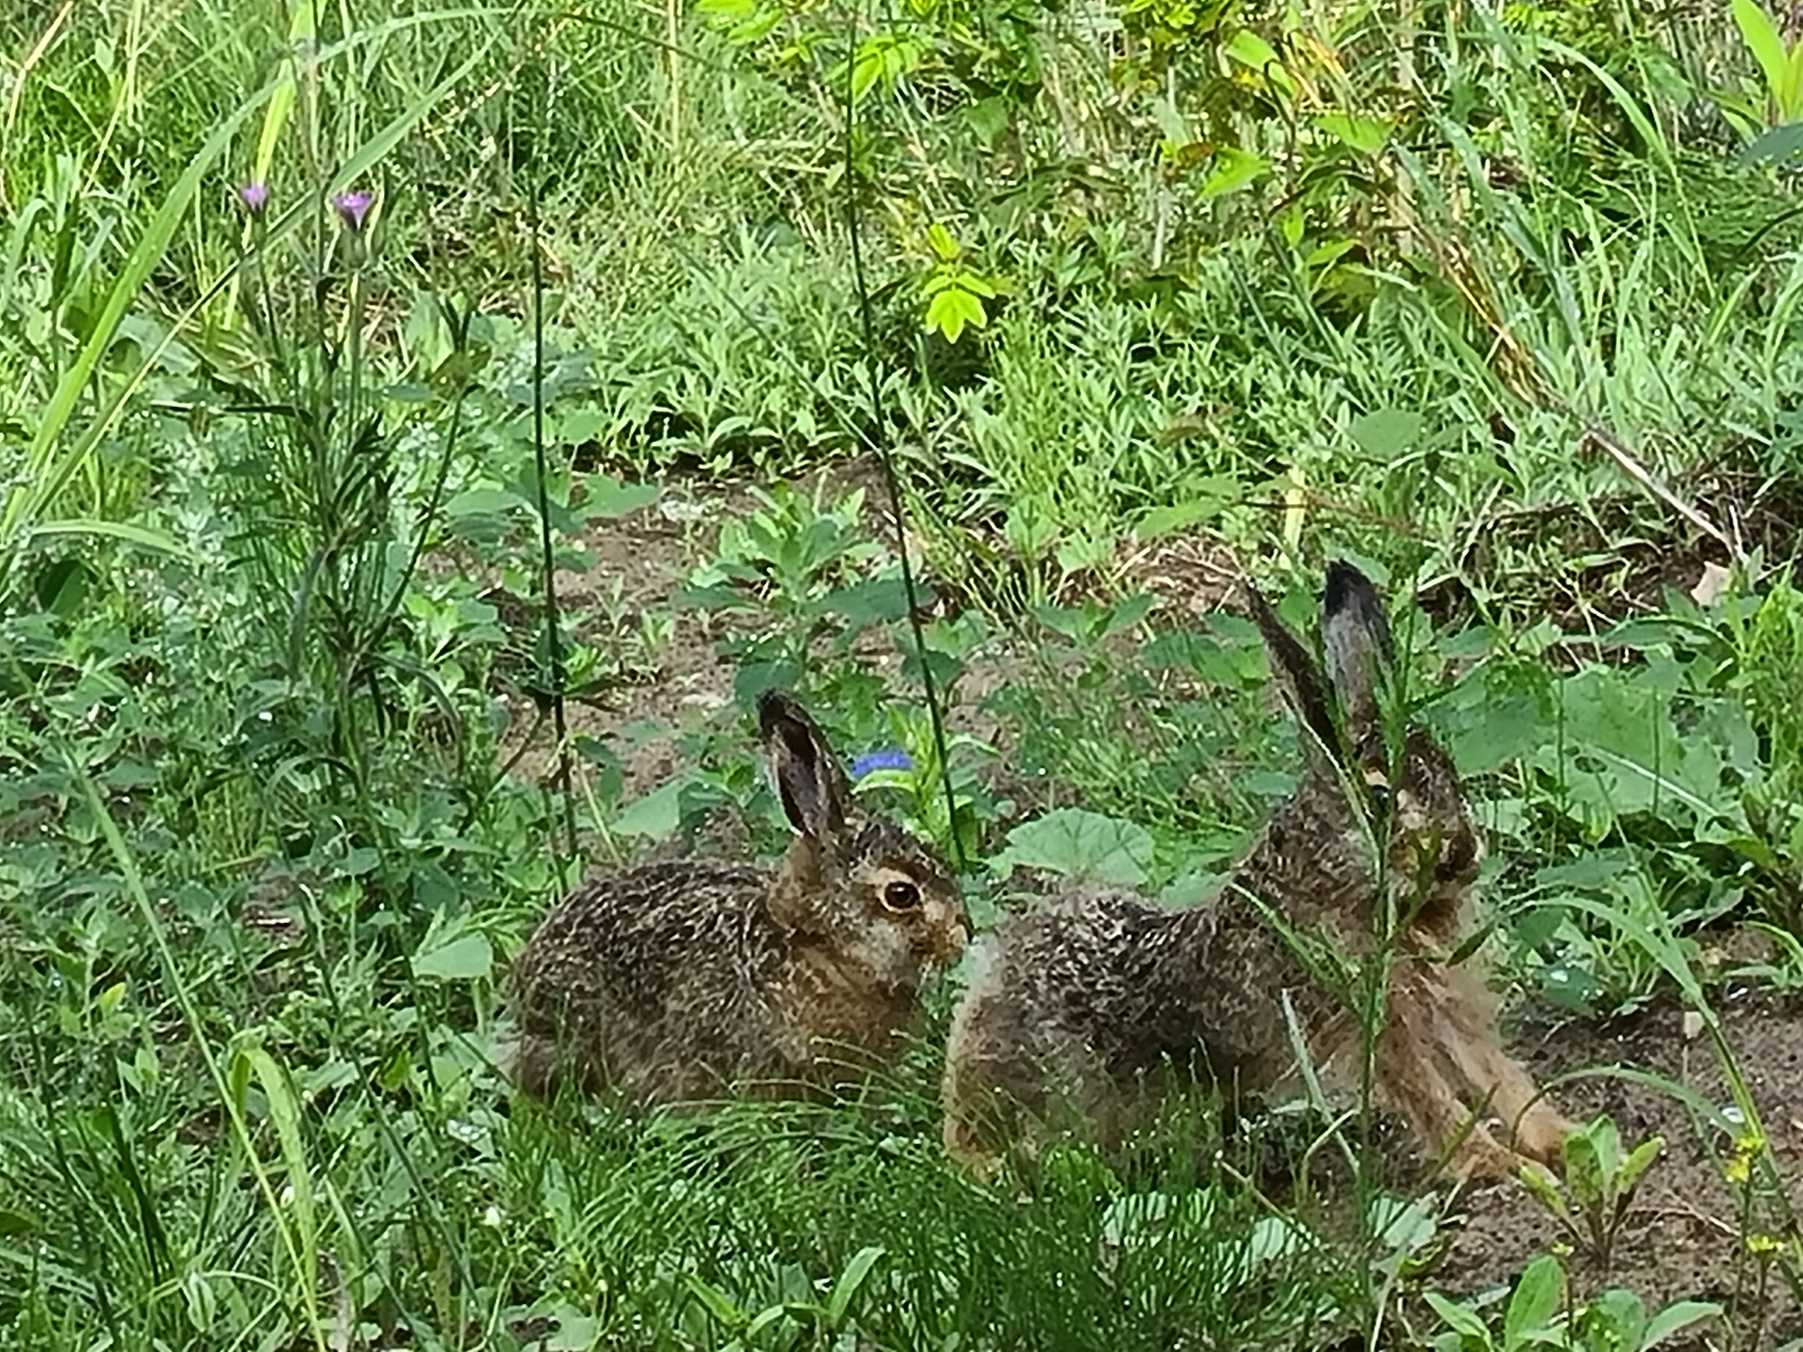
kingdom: Animalia
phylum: Chordata
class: Mammalia
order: Lagomorpha
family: Leporidae
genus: Lepus
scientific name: Lepus europaeus
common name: Hare
